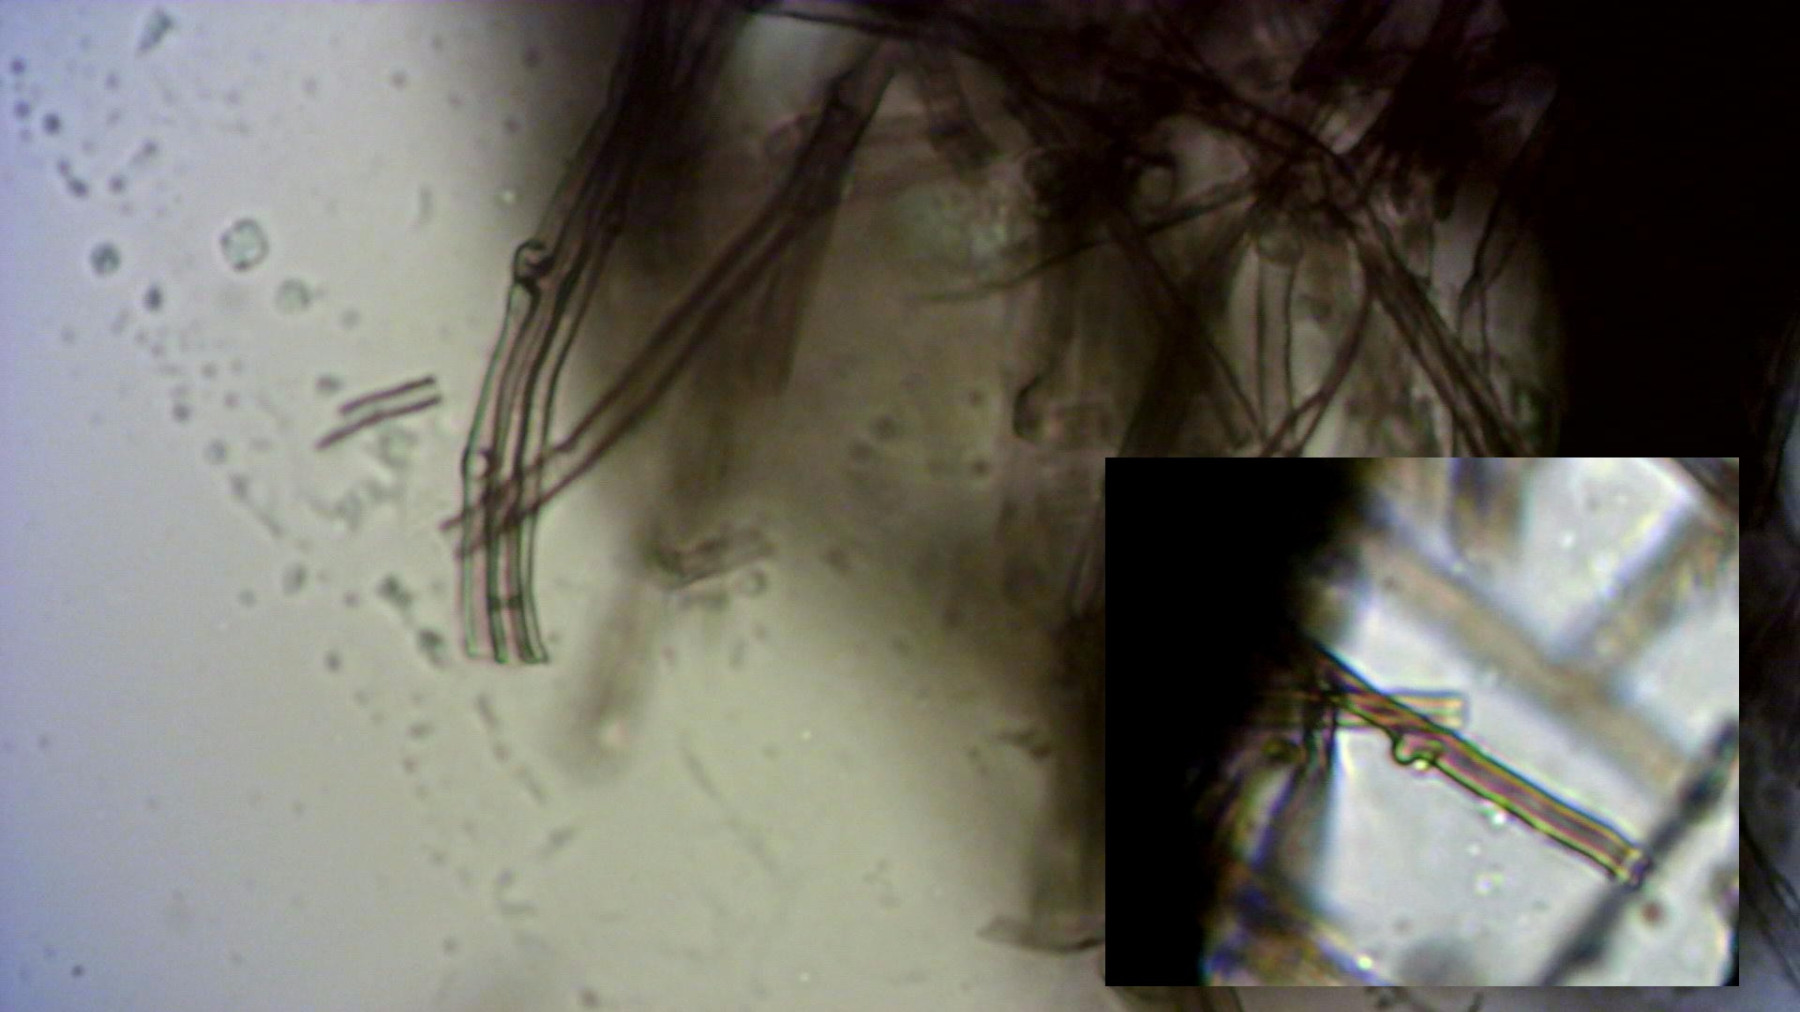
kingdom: Fungi
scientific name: Fungi
